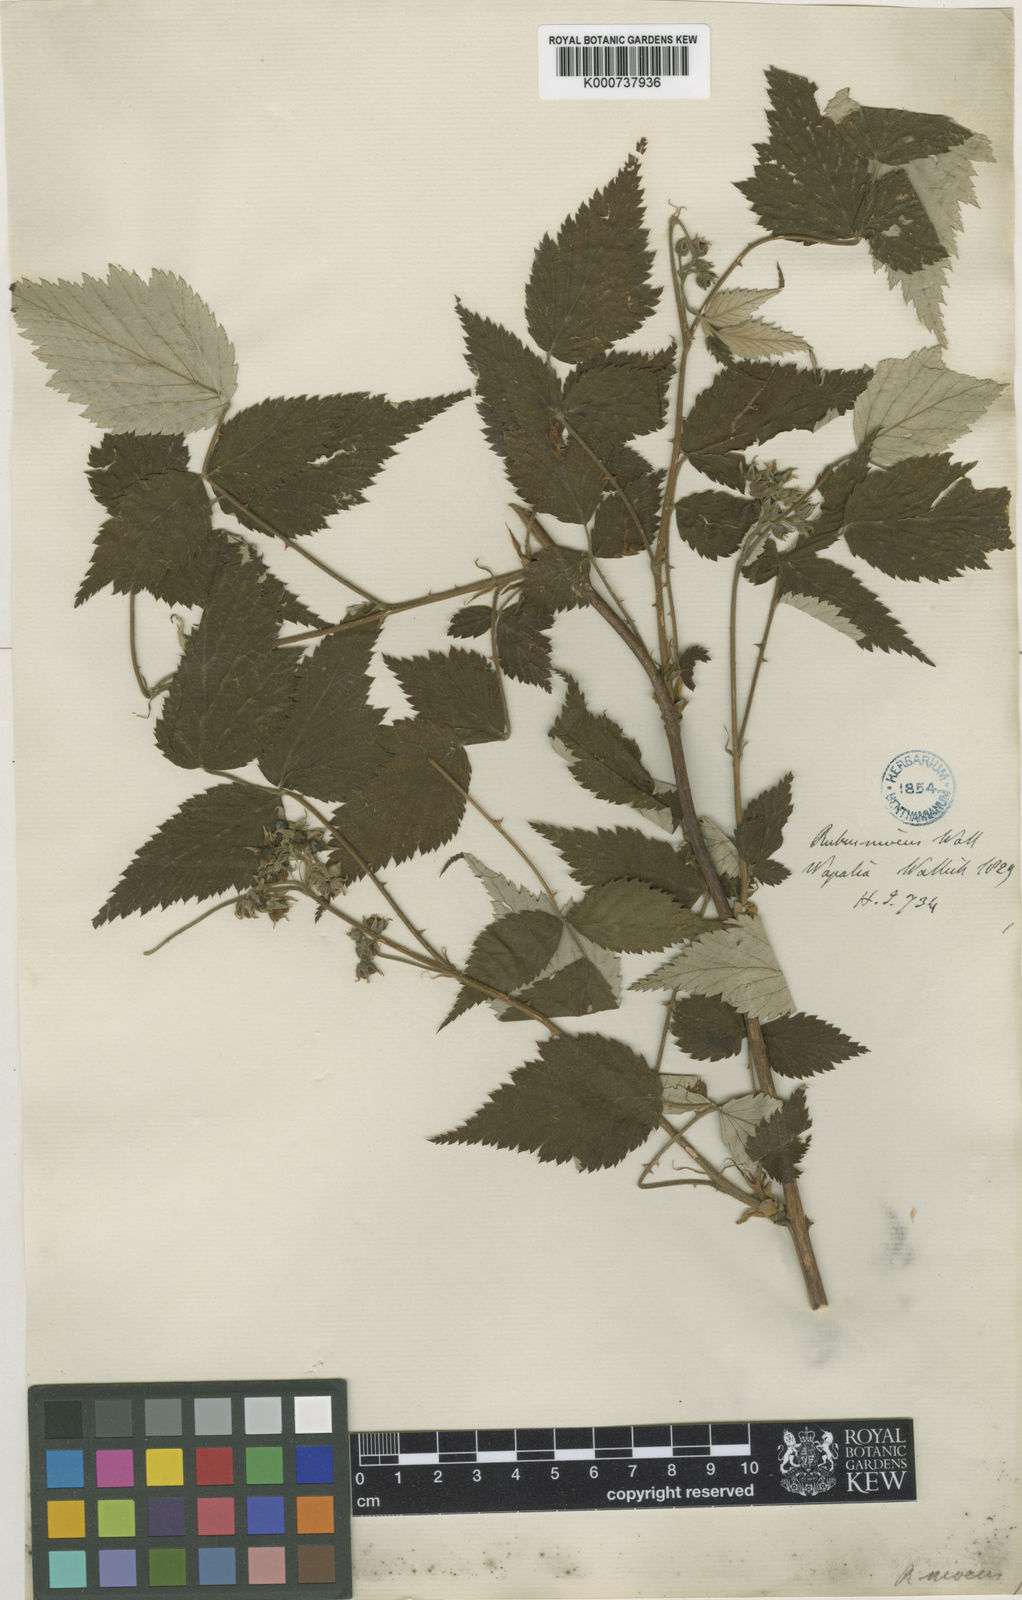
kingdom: Plantae
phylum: Tracheophyta
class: Magnoliopsida
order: Rosales
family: Rosaceae
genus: Rubus
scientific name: Rubus
